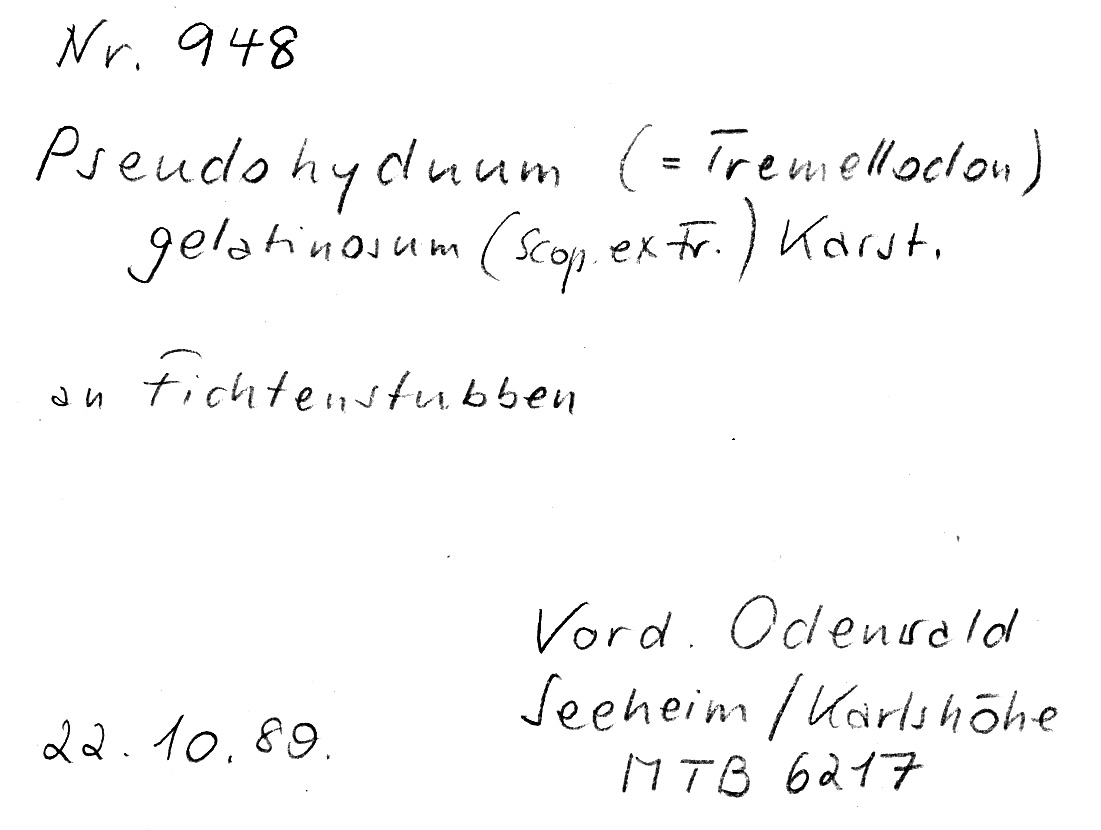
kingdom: Fungi
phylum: Basidiomycota
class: Agaricomycetes
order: Auriculariales
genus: Pseudohydnum
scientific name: Pseudohydnum gelatinosum
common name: Jelly tongue
